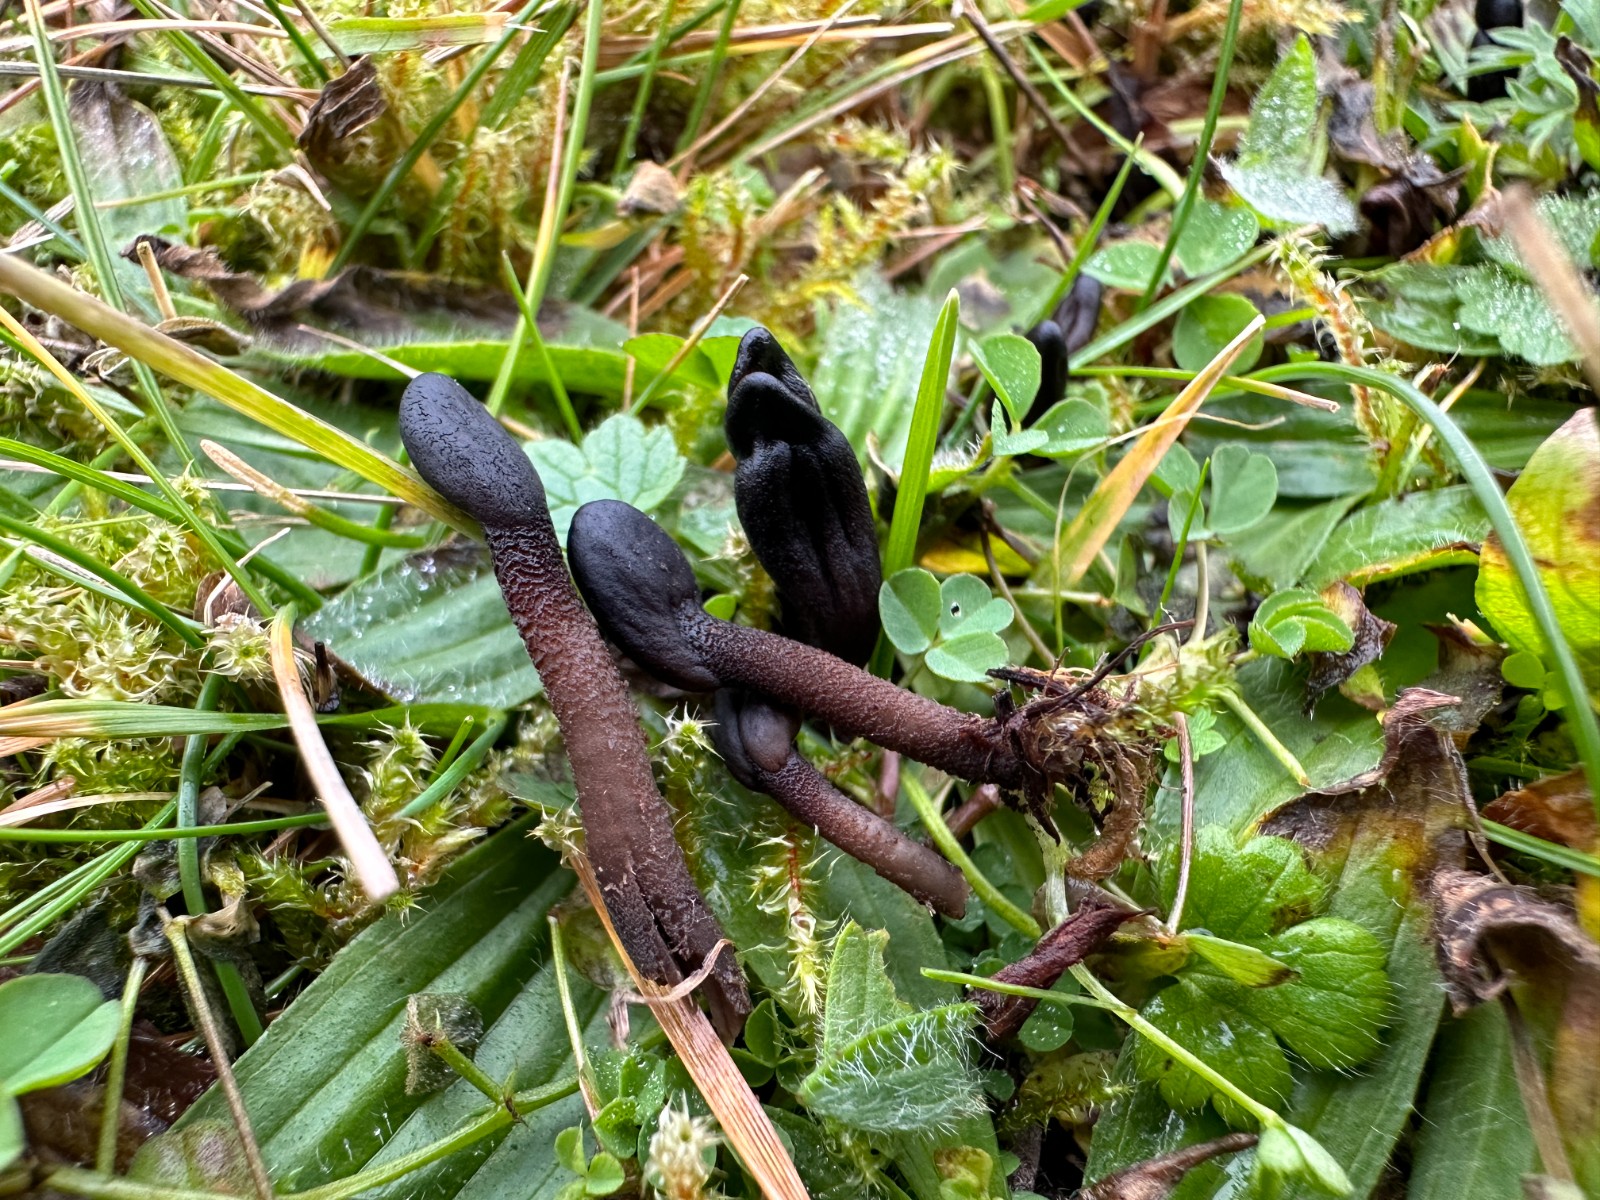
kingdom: Fungi
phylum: Ascomycota
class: Geoglossomycetes
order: Geoglossales
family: Geoglossaceae
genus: Geoglossum
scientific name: Geoglossum fallax
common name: småskællet jordtunge
